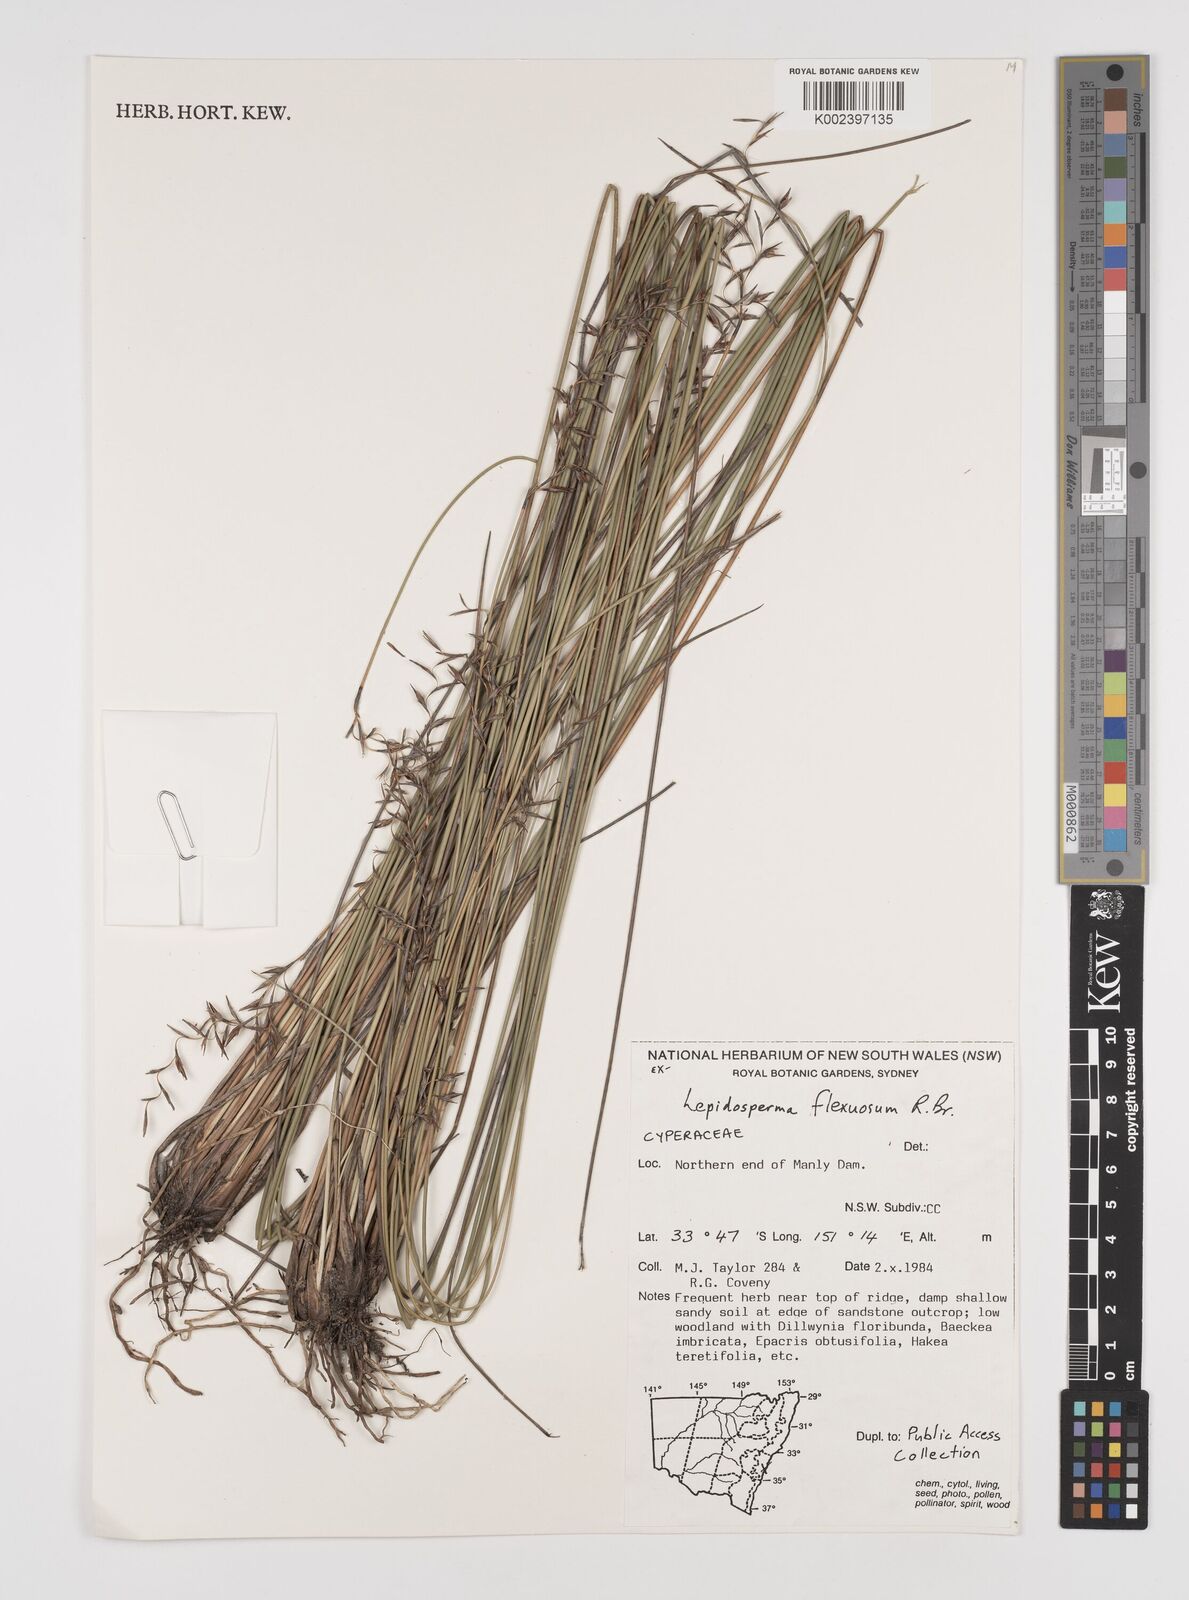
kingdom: Plantae
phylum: Tracheophyta
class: Liliopsida
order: Poales
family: Cyperaceae
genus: Lepidosperma
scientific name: Lepidosperma flexuosum
